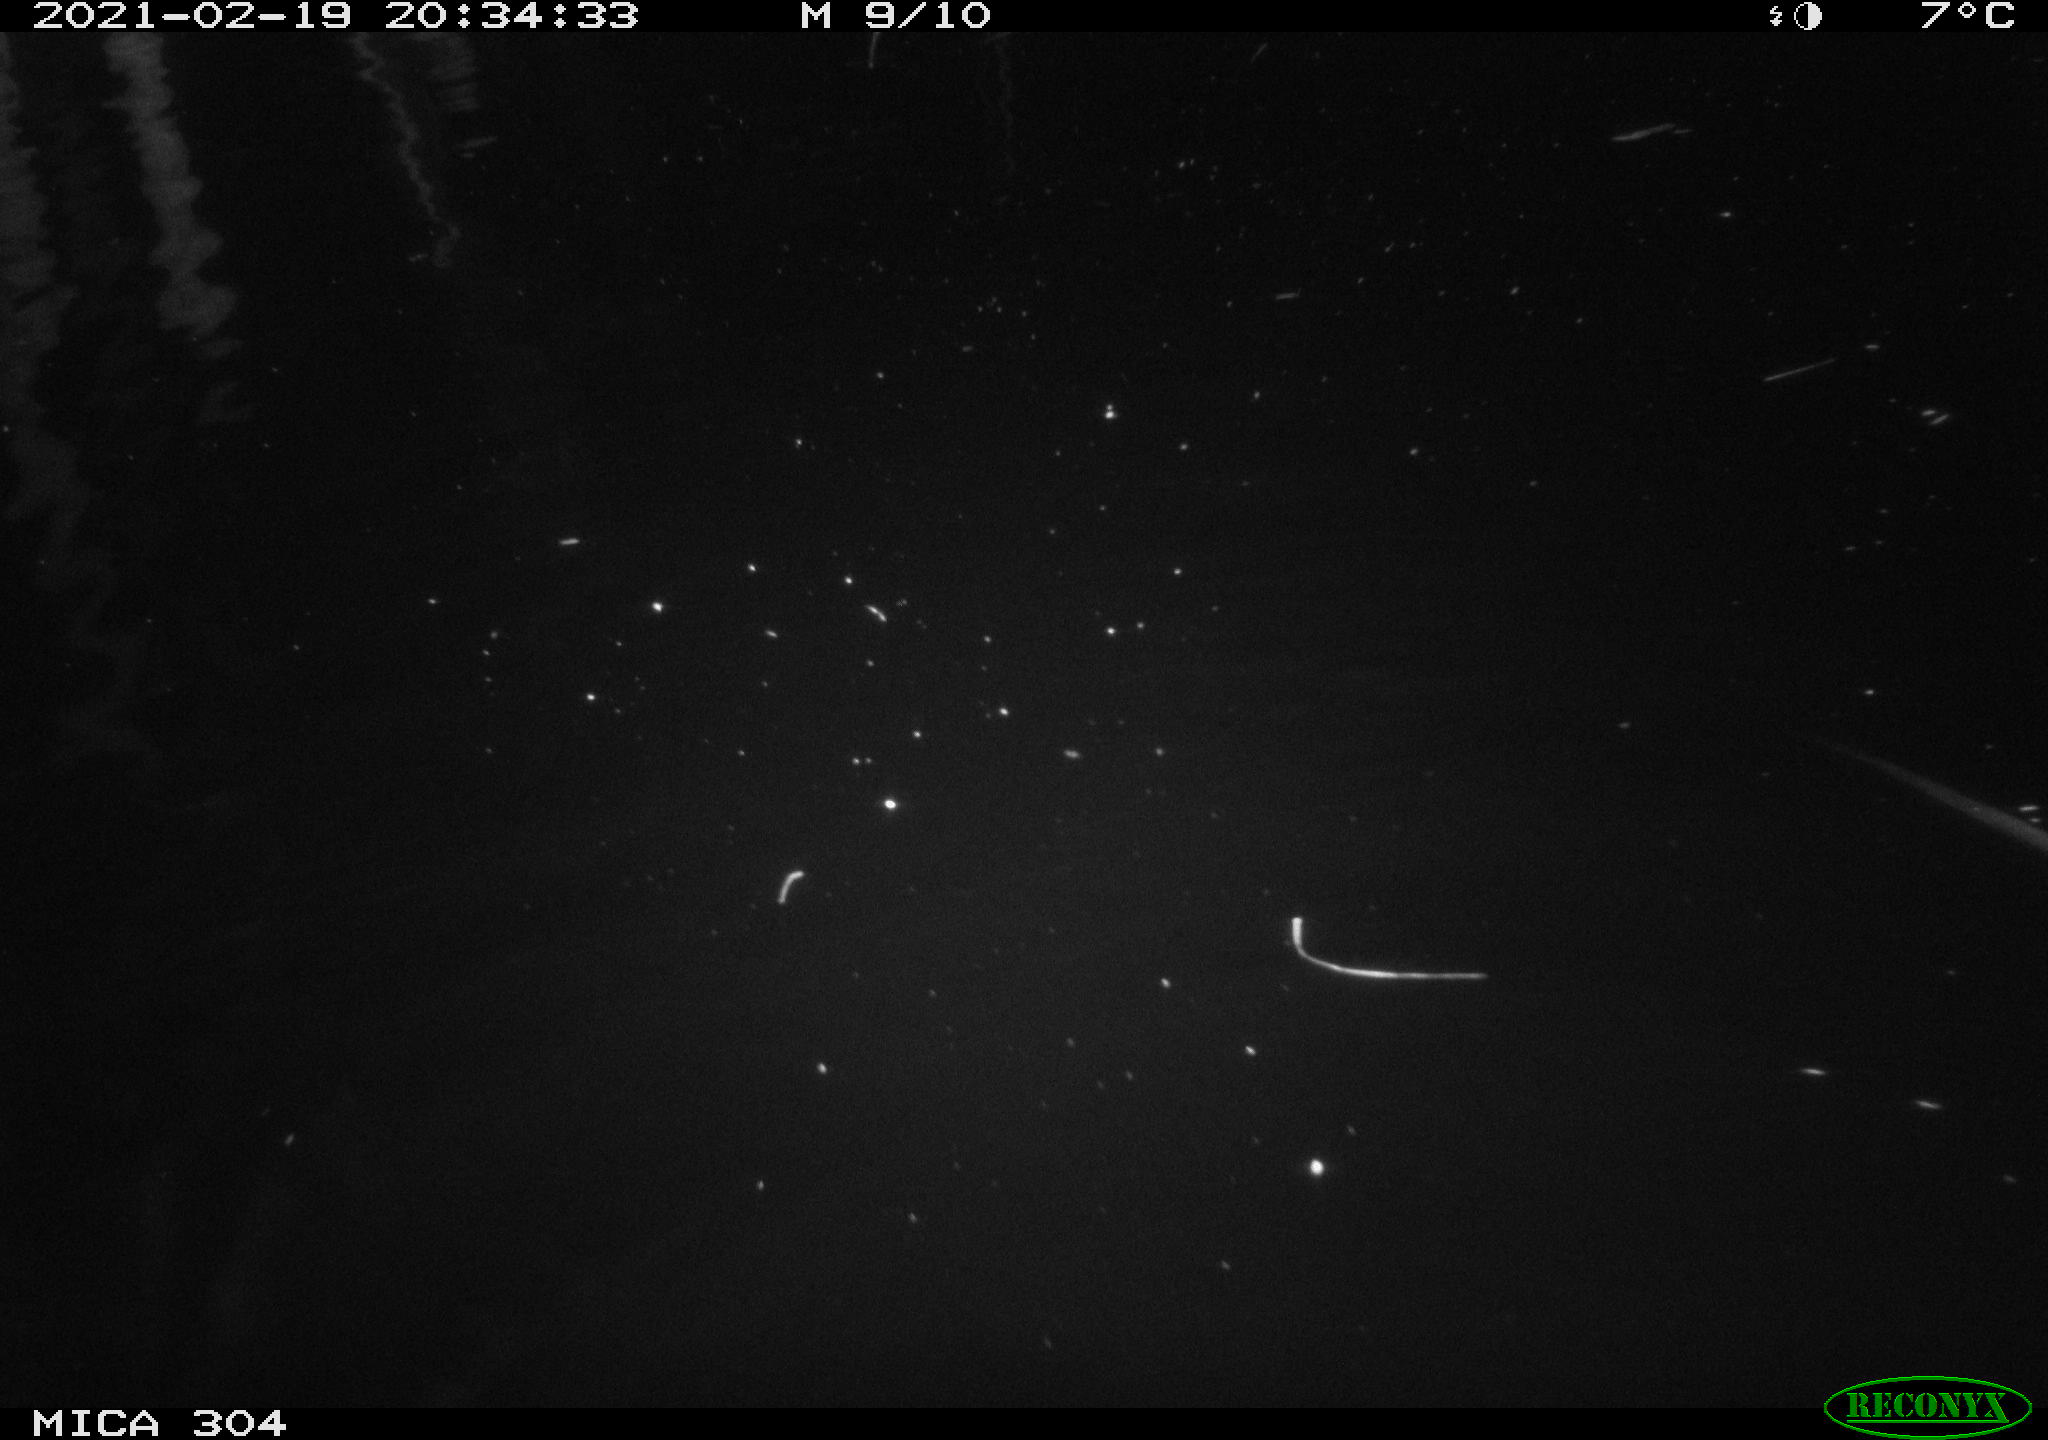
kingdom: Animalia
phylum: Chordata
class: Mammalia
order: Rodentia
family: Cricetidae
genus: Ondatra
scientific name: Ondatra zibethicus
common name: Muskrat
